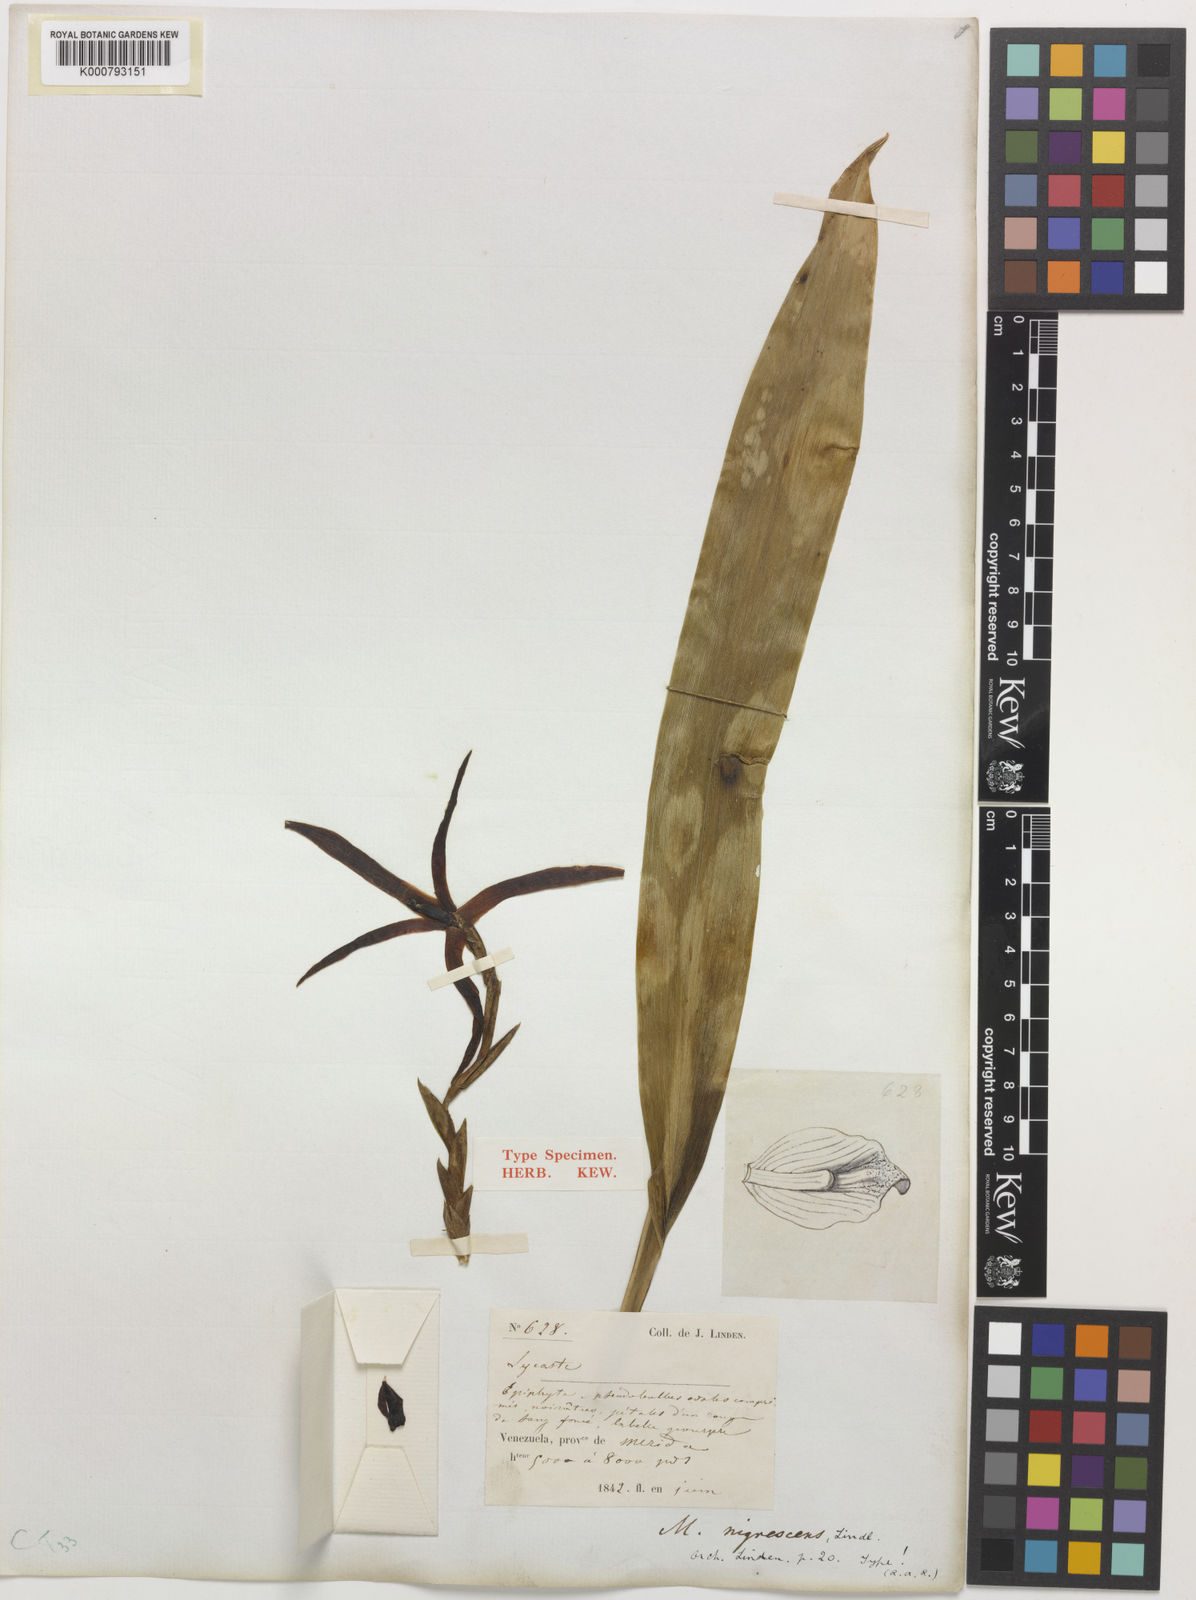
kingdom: Plantae
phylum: Tracheophyta
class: Liliopsida
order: Asparagales
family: Orchidaceae
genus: Maxillaria
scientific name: Maxillaria nigrescens
